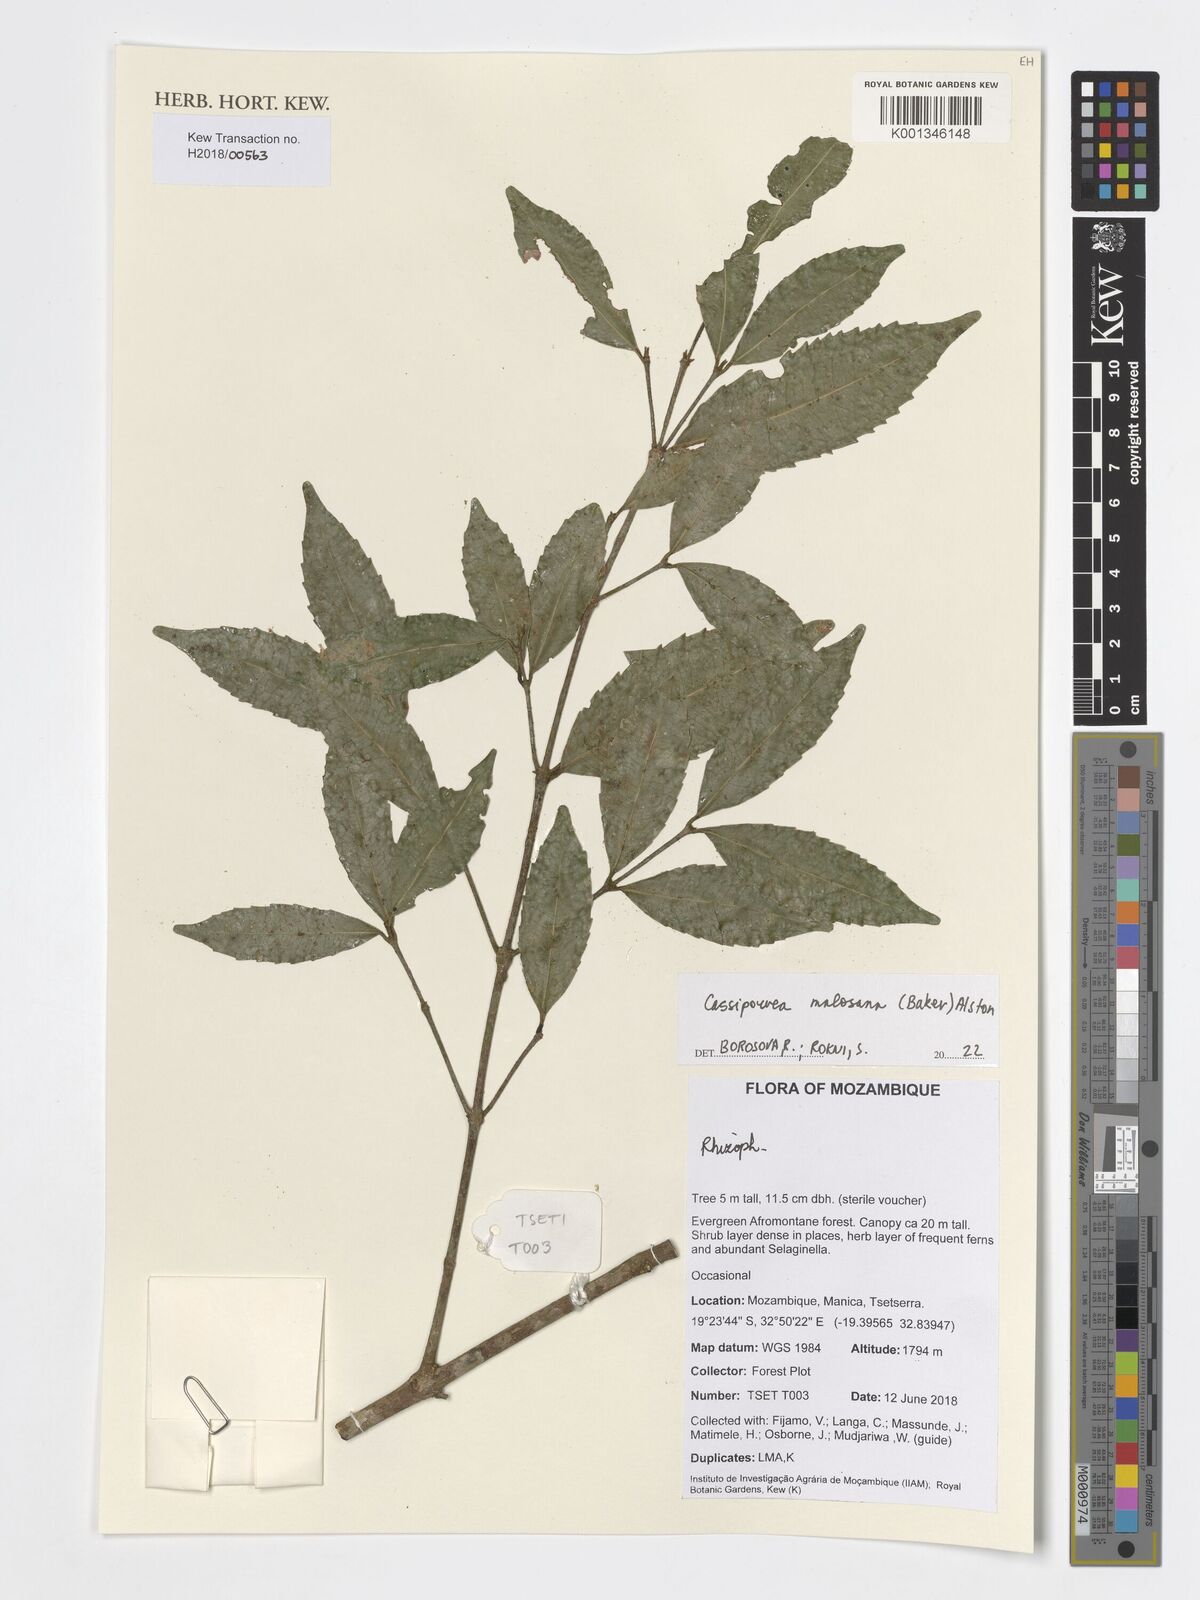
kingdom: Plantae
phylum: Tracheophyta
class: Magnoliopsida
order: Malpighiales
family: Rhizophoraceae
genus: Cassipourea
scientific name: Cassipourea malosana
